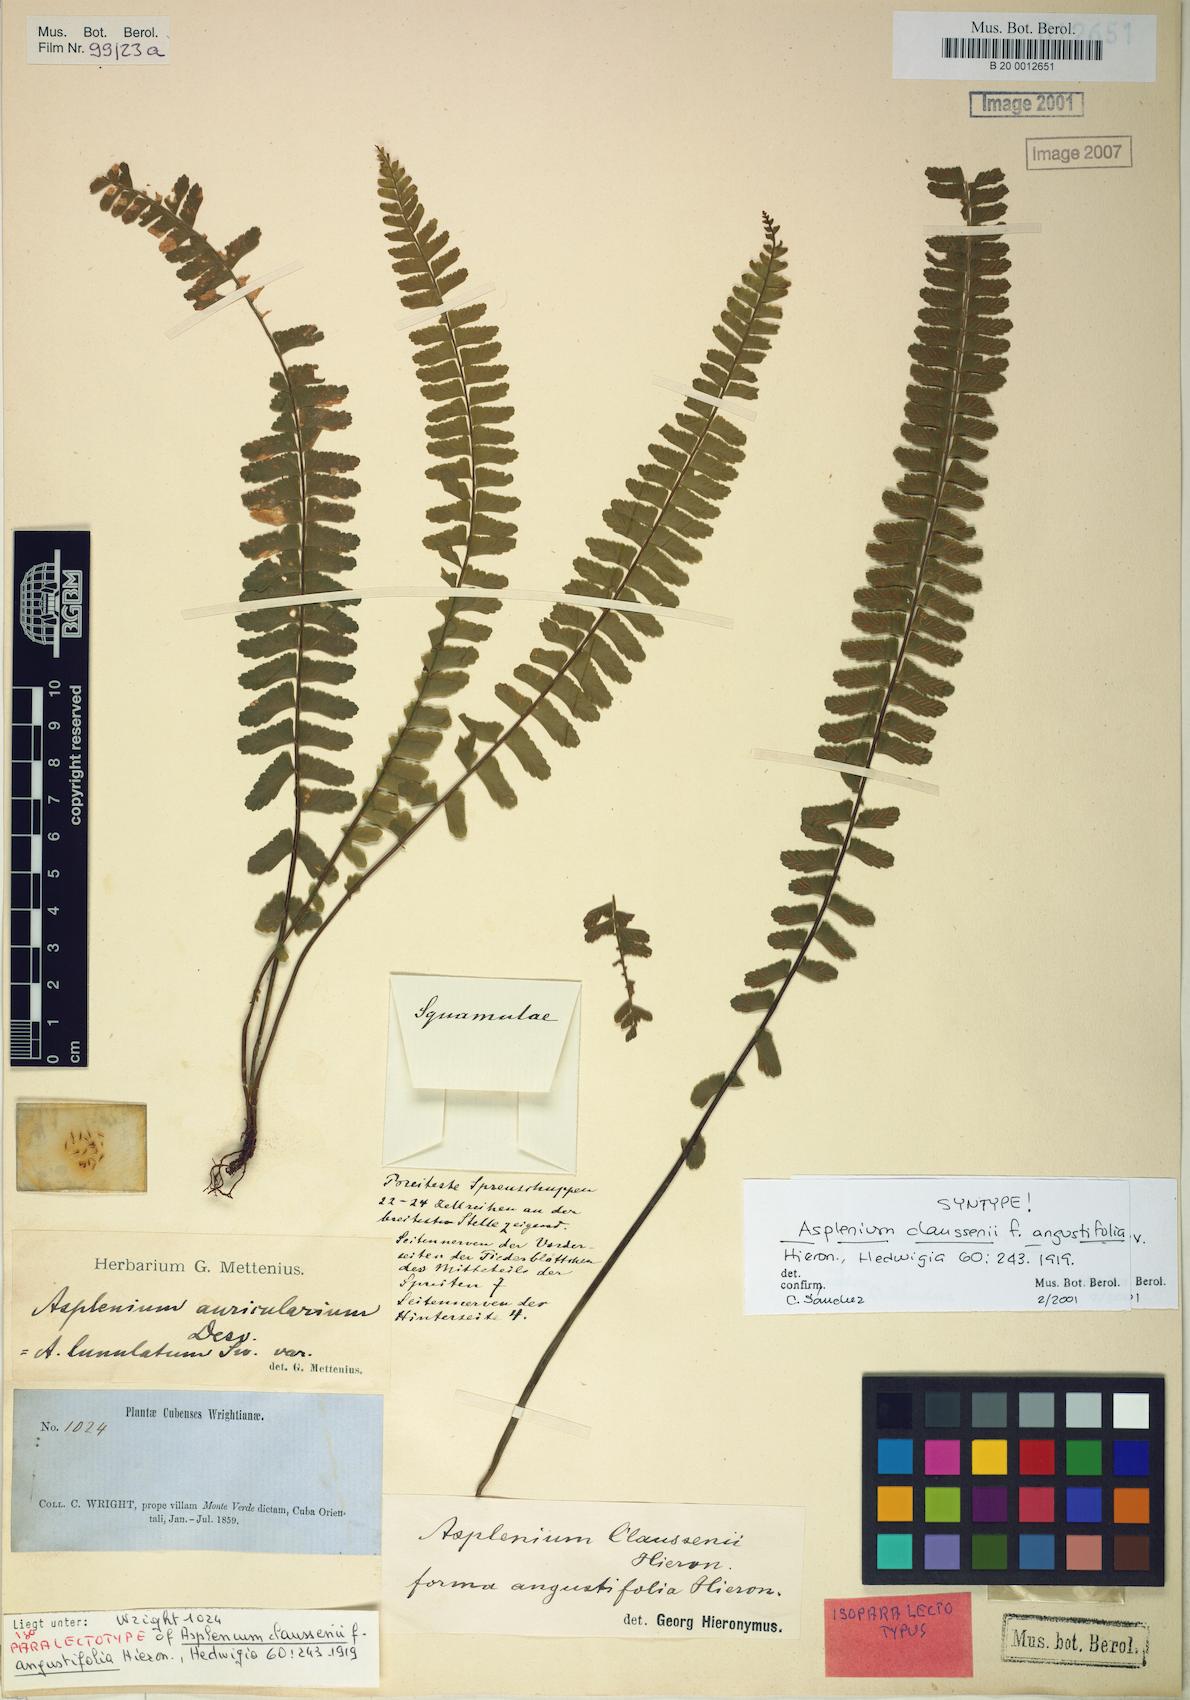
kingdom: Plantae
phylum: Tracheophyta
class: Polypodiopsida
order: Polypodiales
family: Aspleniaceae
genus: Asplenium
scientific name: Asplenium claussenii
